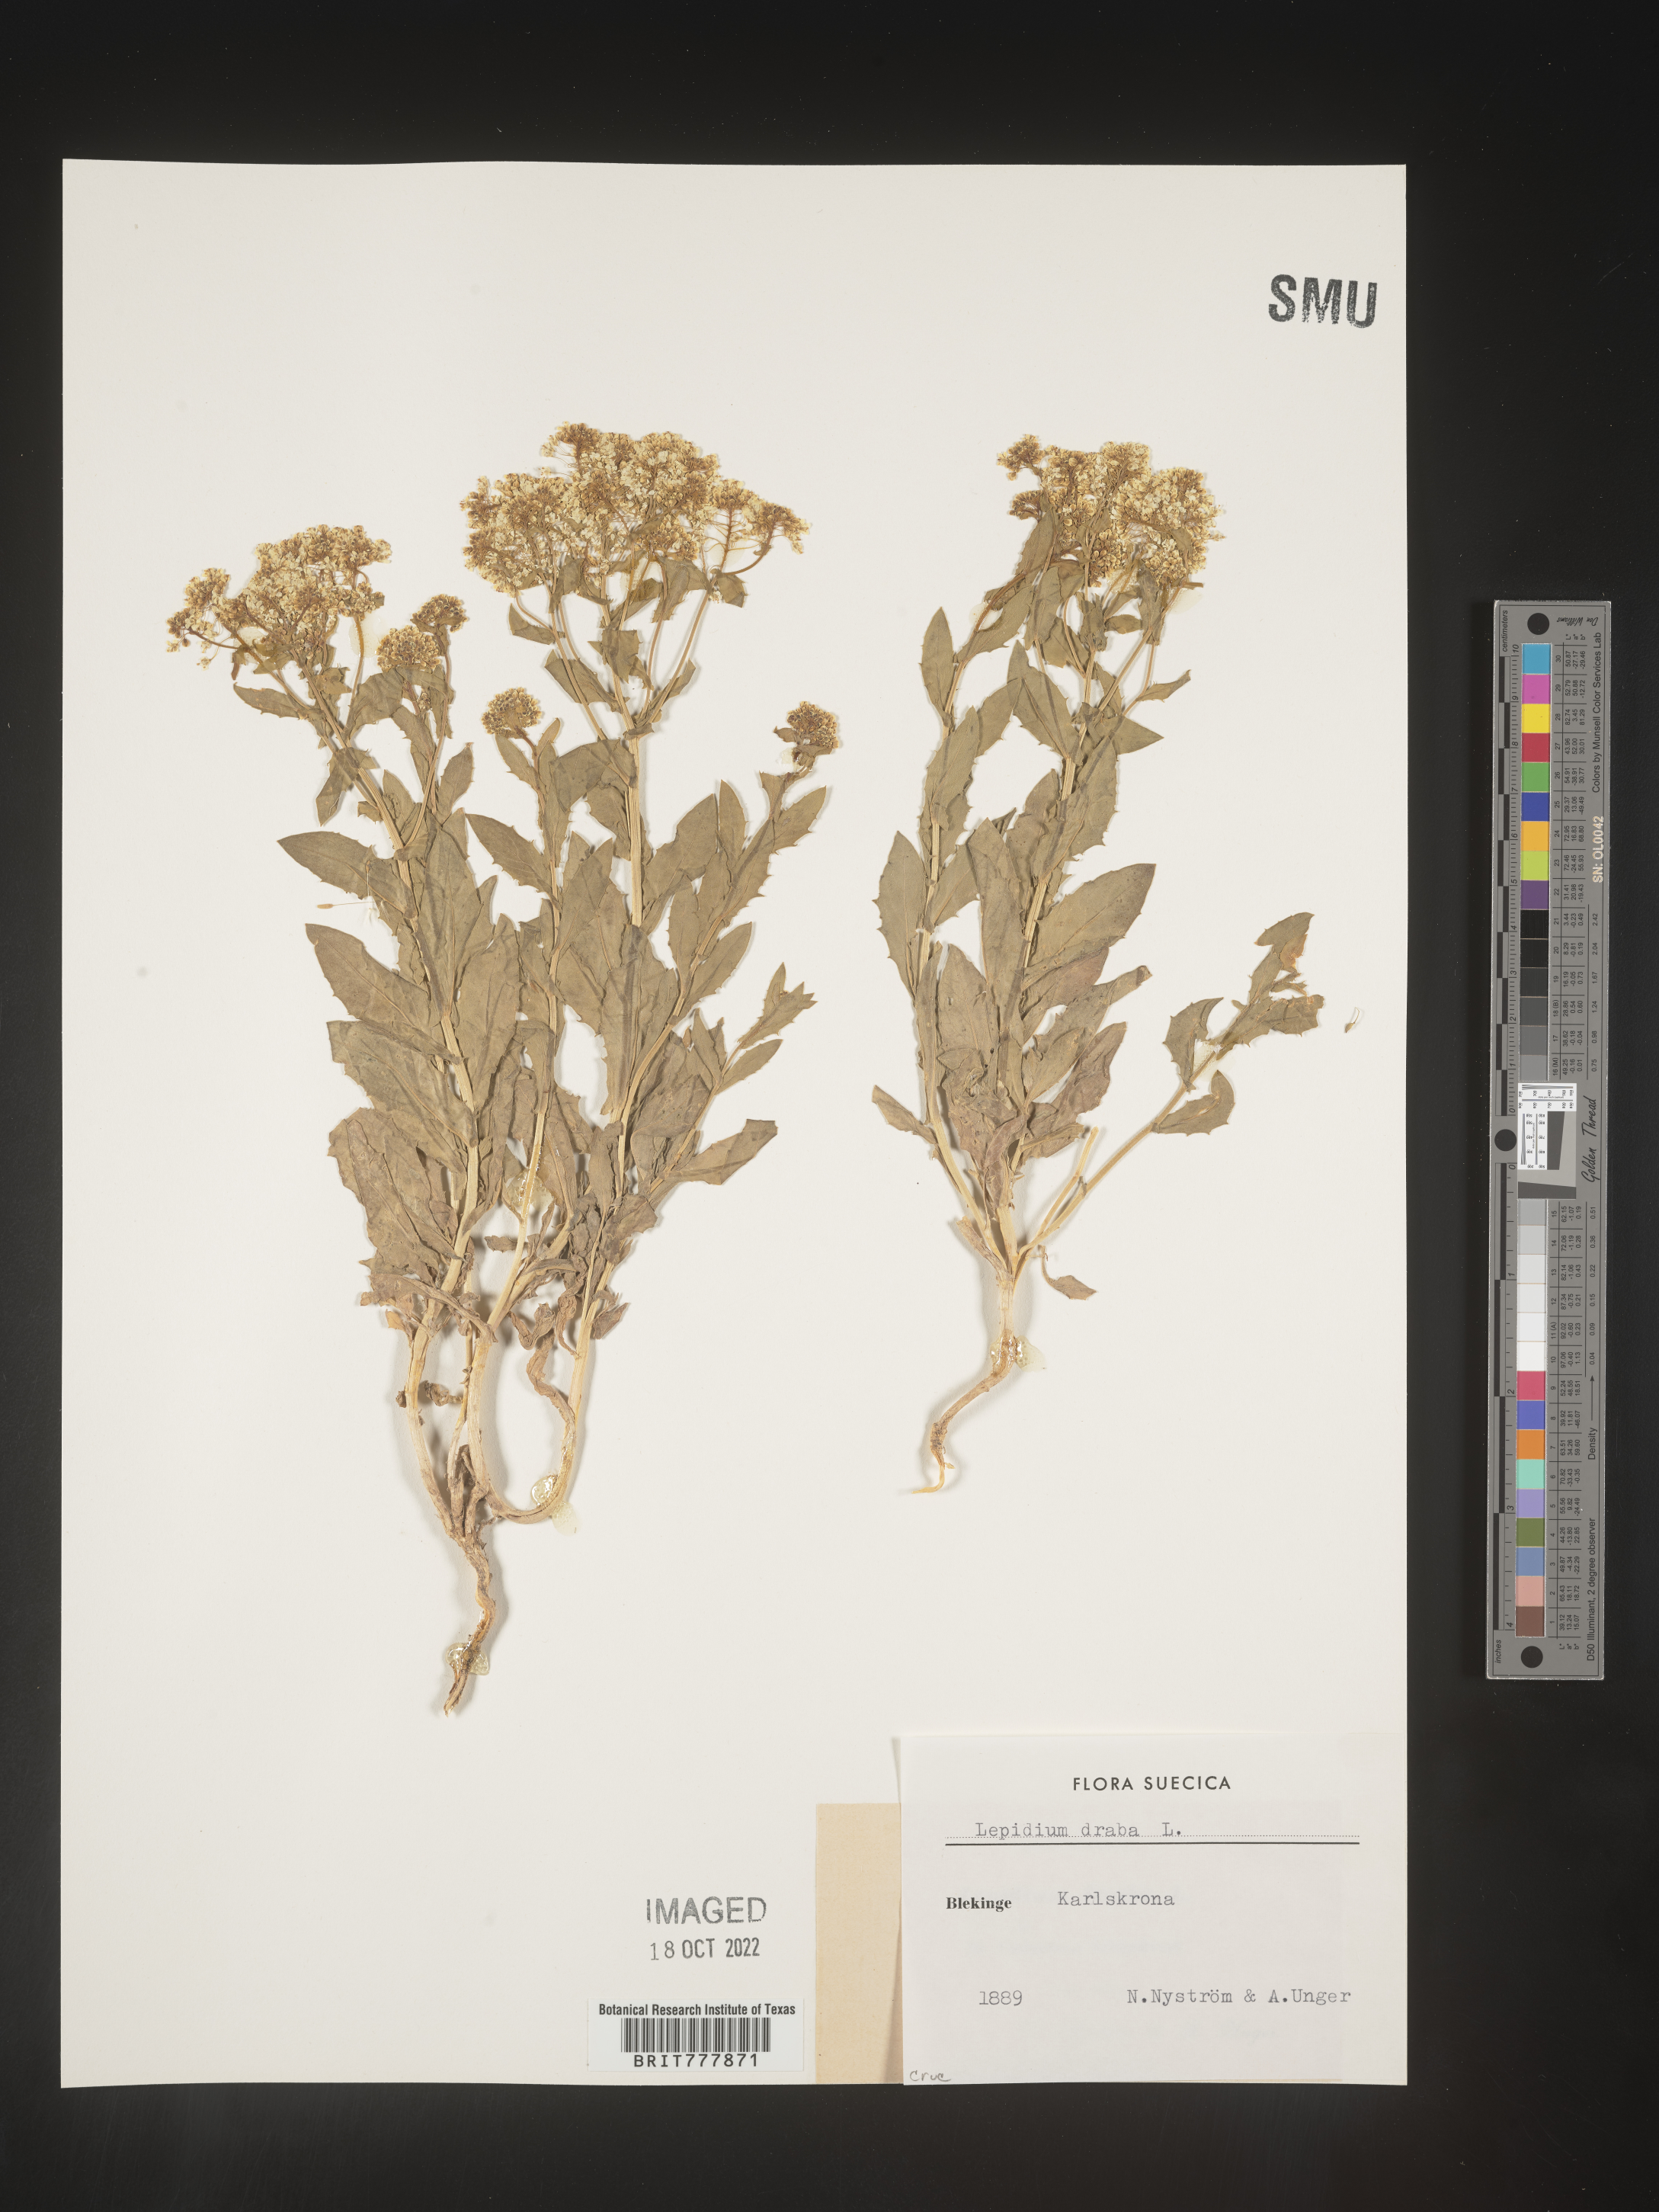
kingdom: Plantae
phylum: Tracheophyta
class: Magnoliopsida
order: Brassicales
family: Brassicaceae
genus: Lepidium
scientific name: Lepidium
